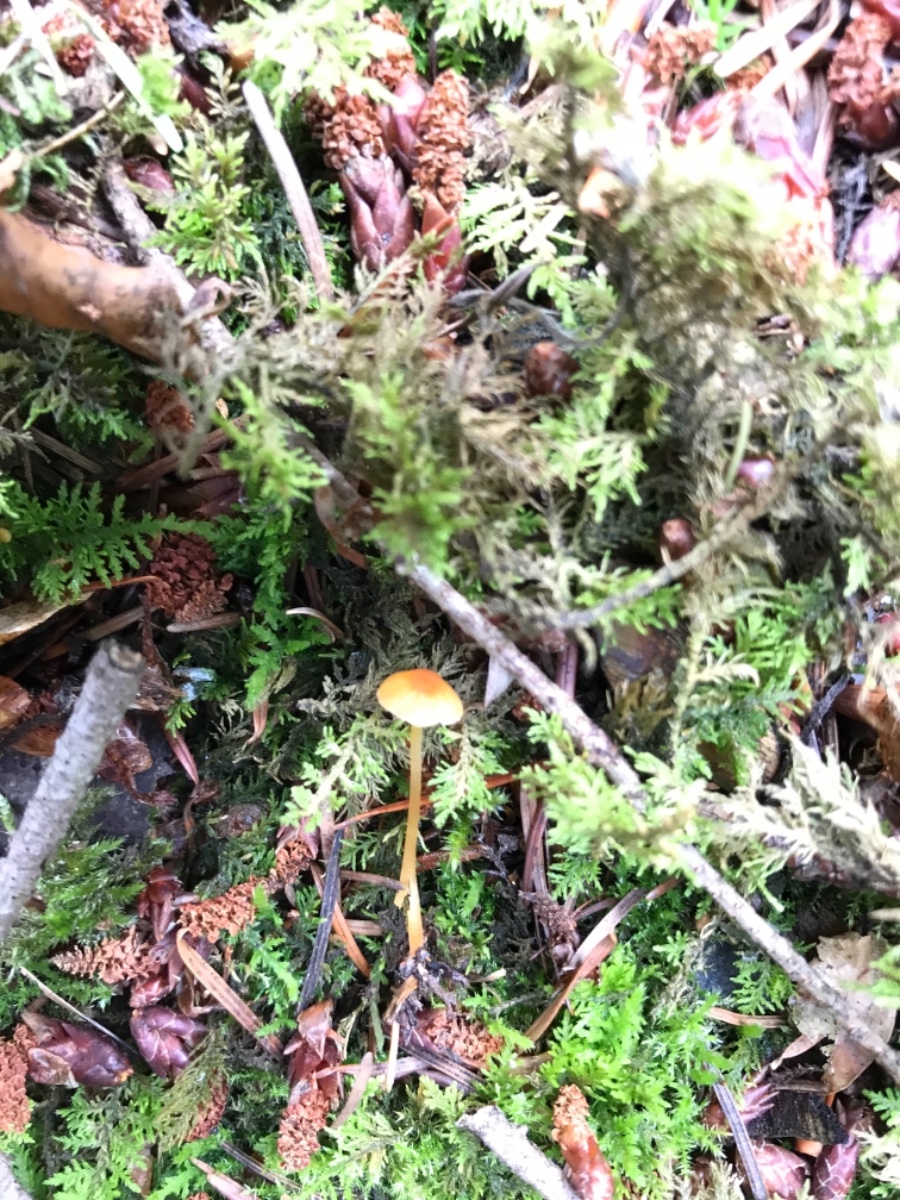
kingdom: Fungi
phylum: Basidiomycota
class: Agaricomycetes
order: Hymenochaetales
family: Rickenellaceae
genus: Rickenella
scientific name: Rickenella fibula
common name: orange mosnavlehat
